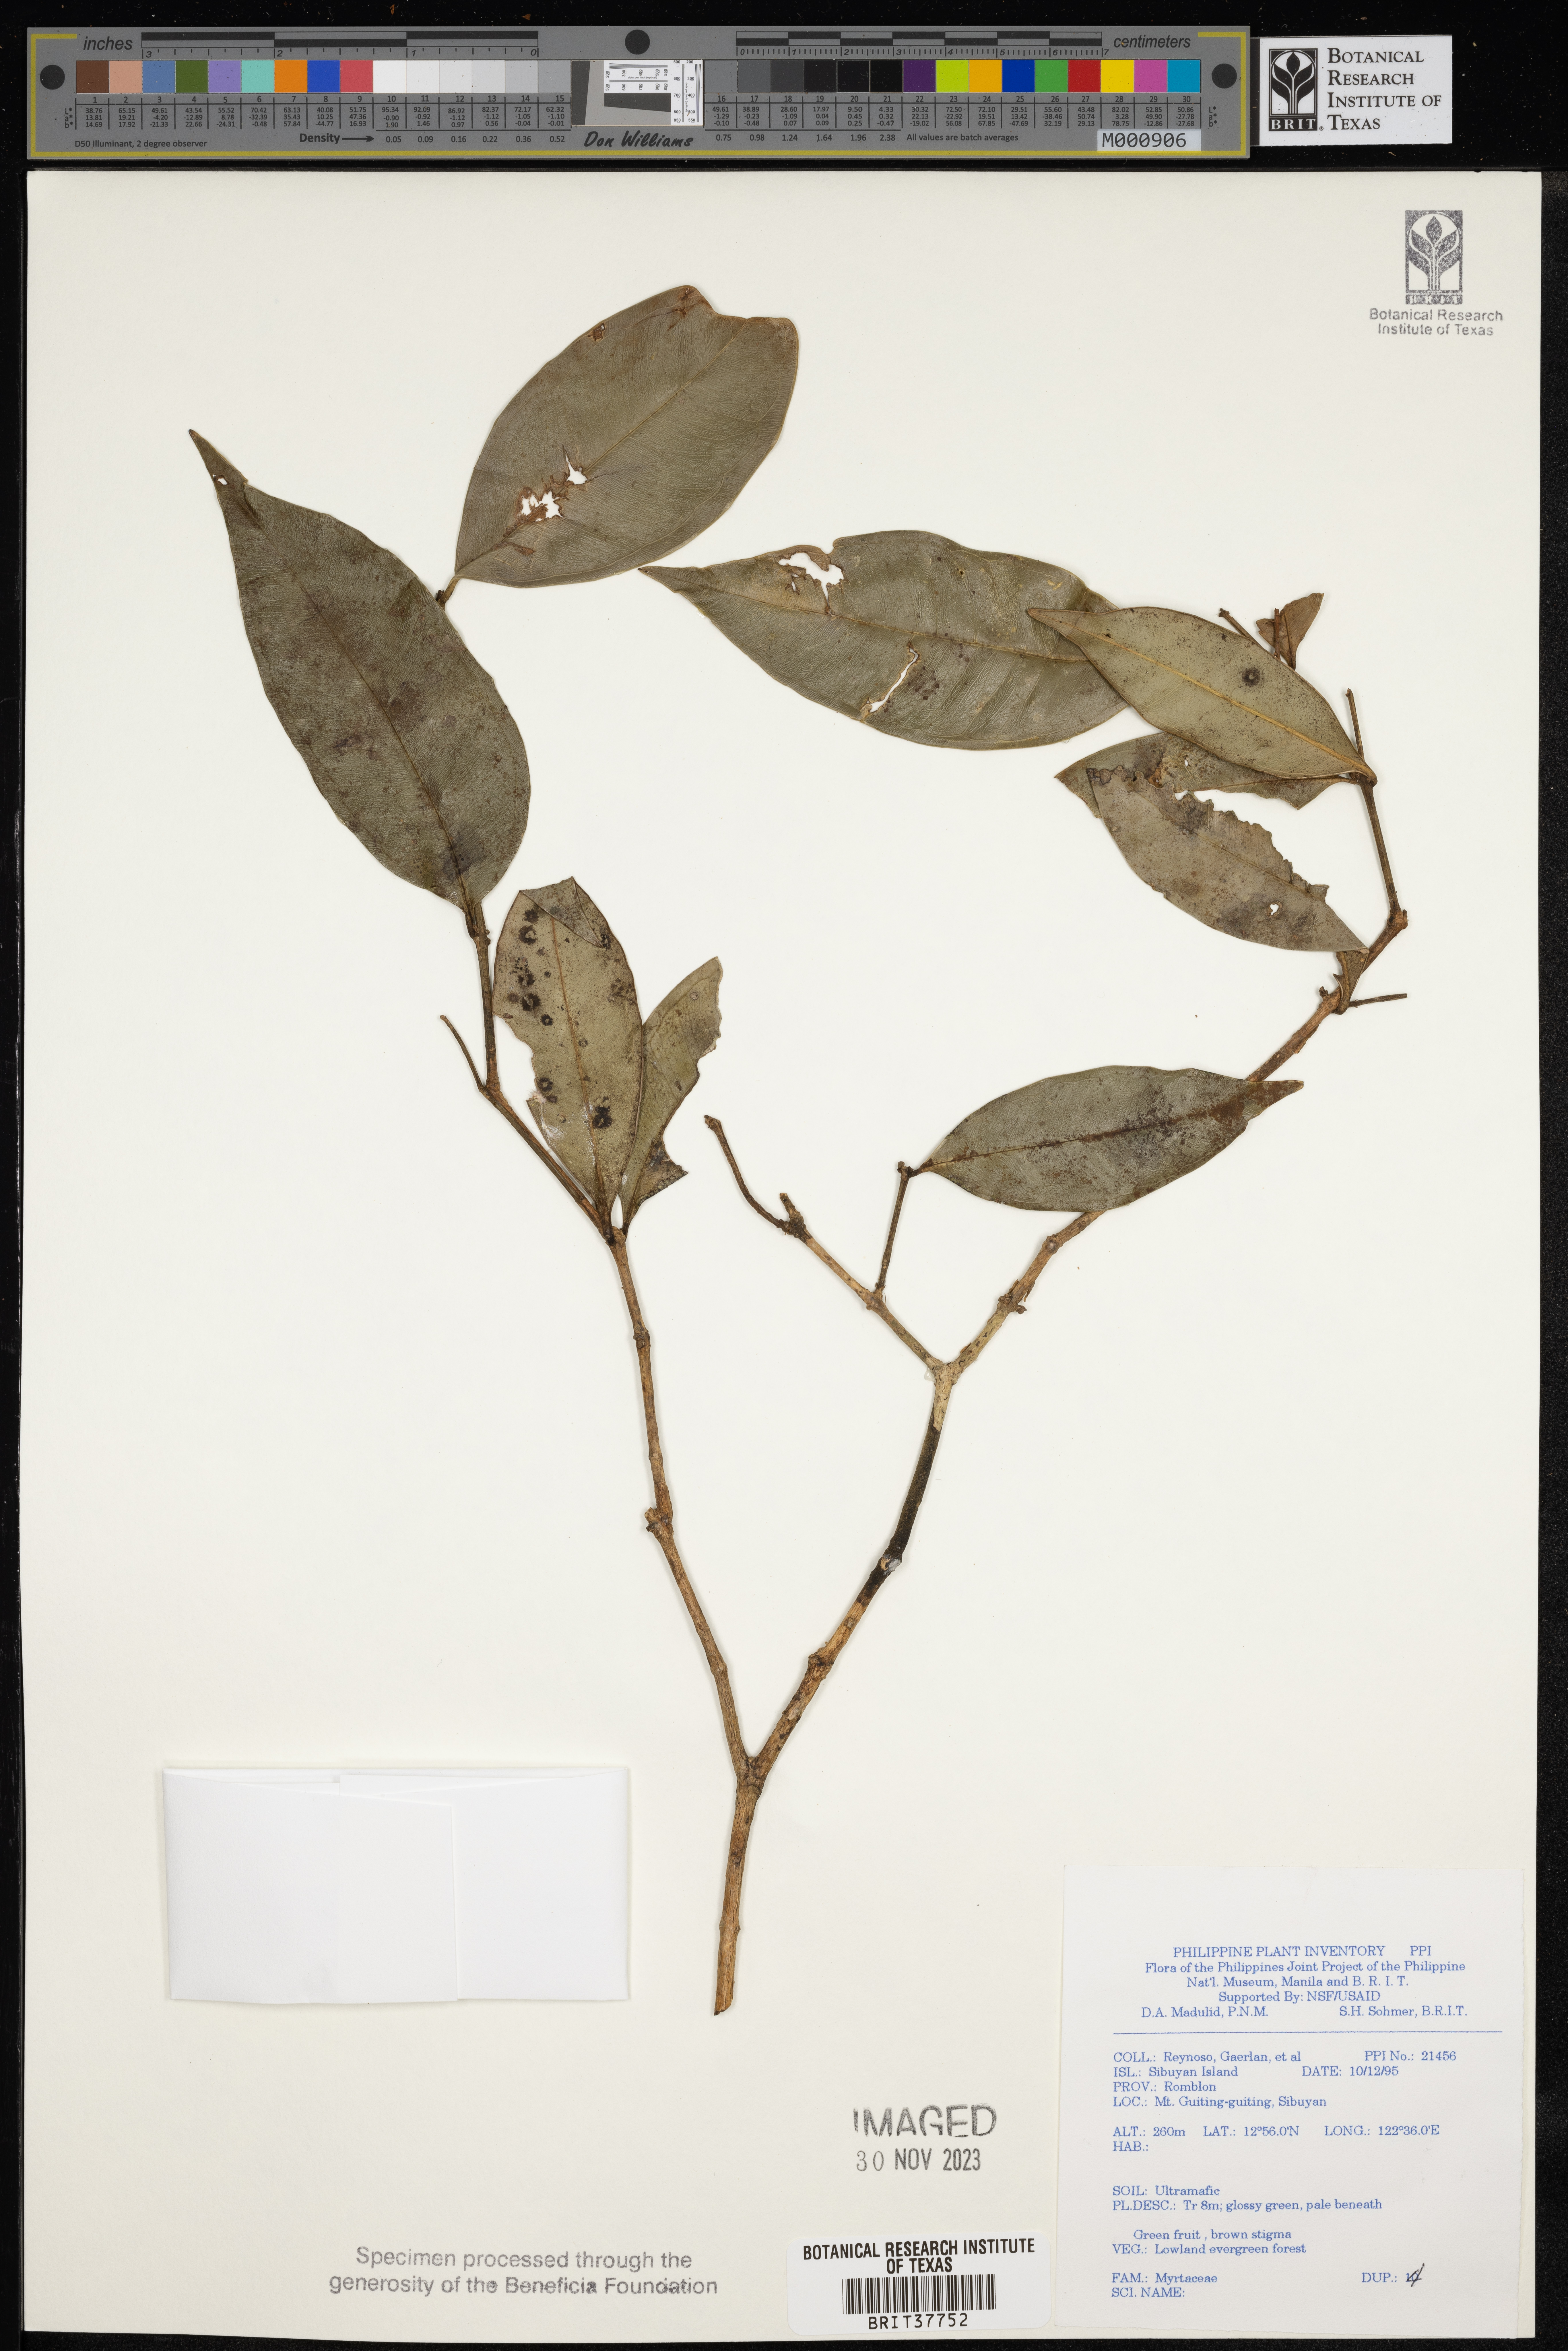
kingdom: Plantae
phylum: Tracheophyta
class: Magnoliopsida
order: Myrtales
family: Myrtaceae
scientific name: Myrtaceae
